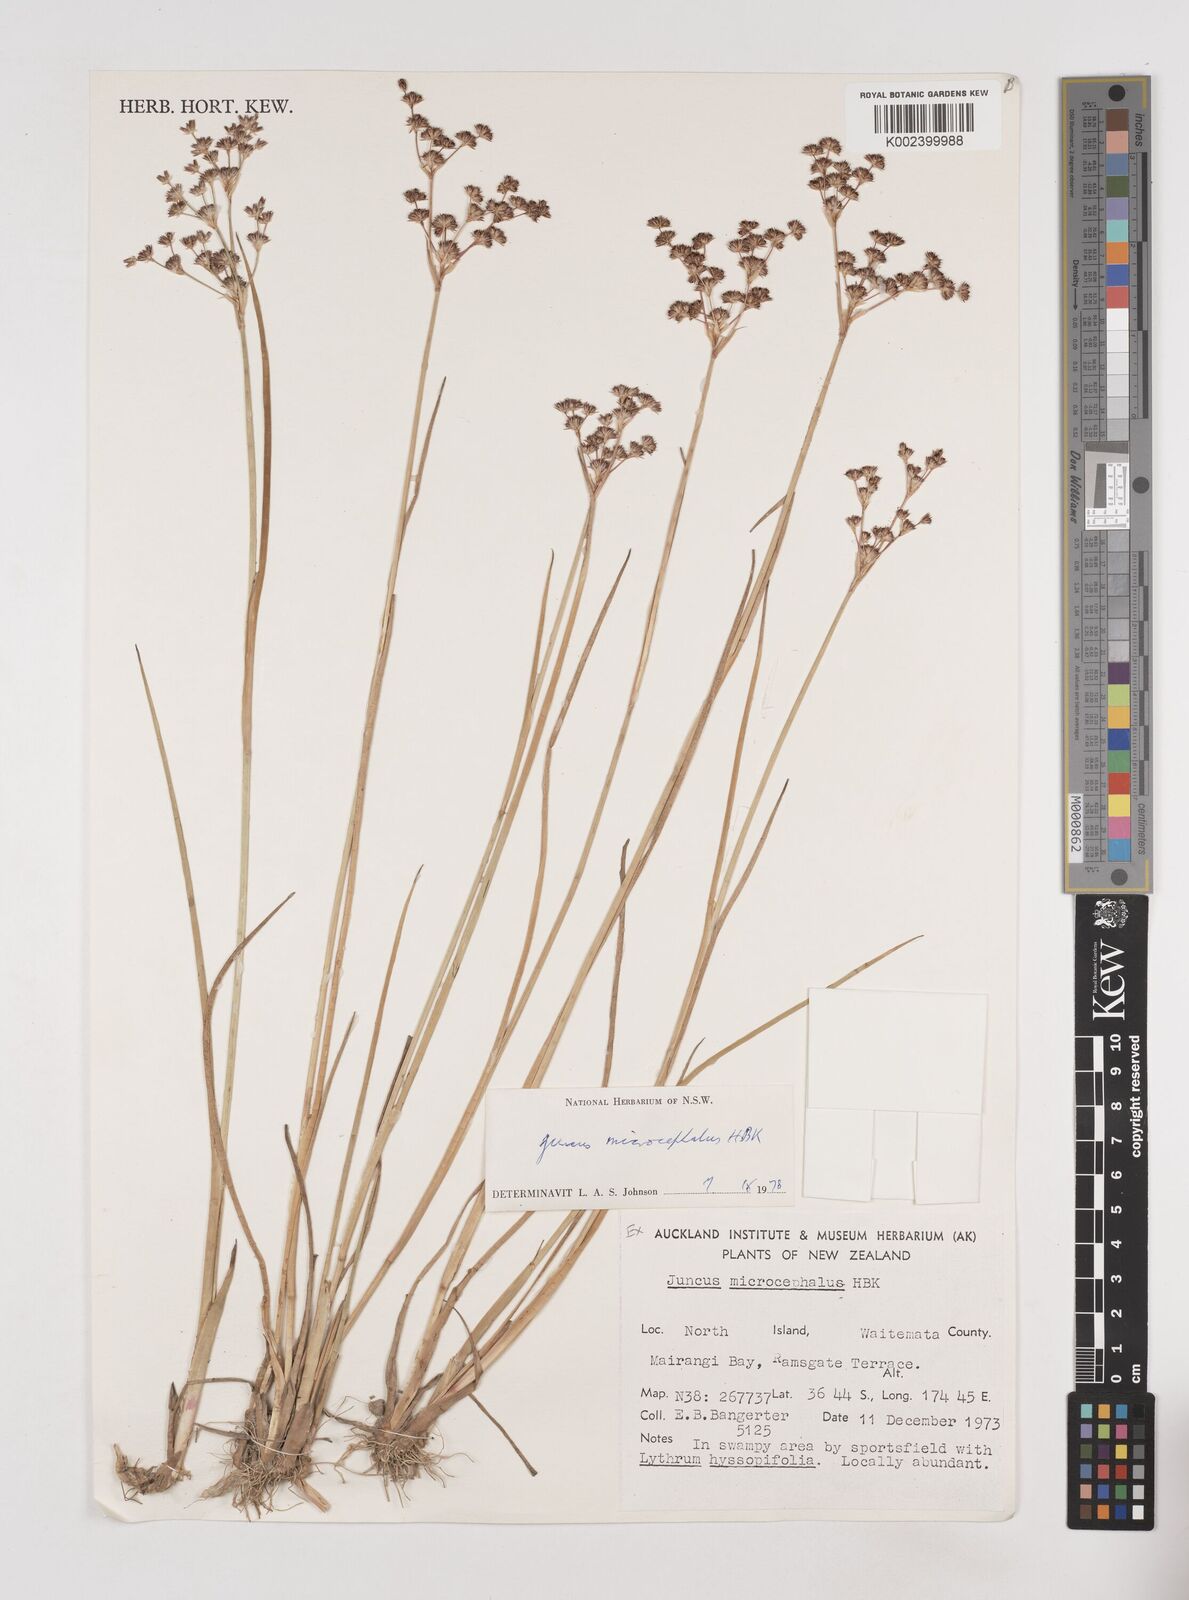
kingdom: Plantae
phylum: Tracheophyta
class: Liliopsida
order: Poales
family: Juncaceae
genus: Juncus
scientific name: Juncus microcephalus
